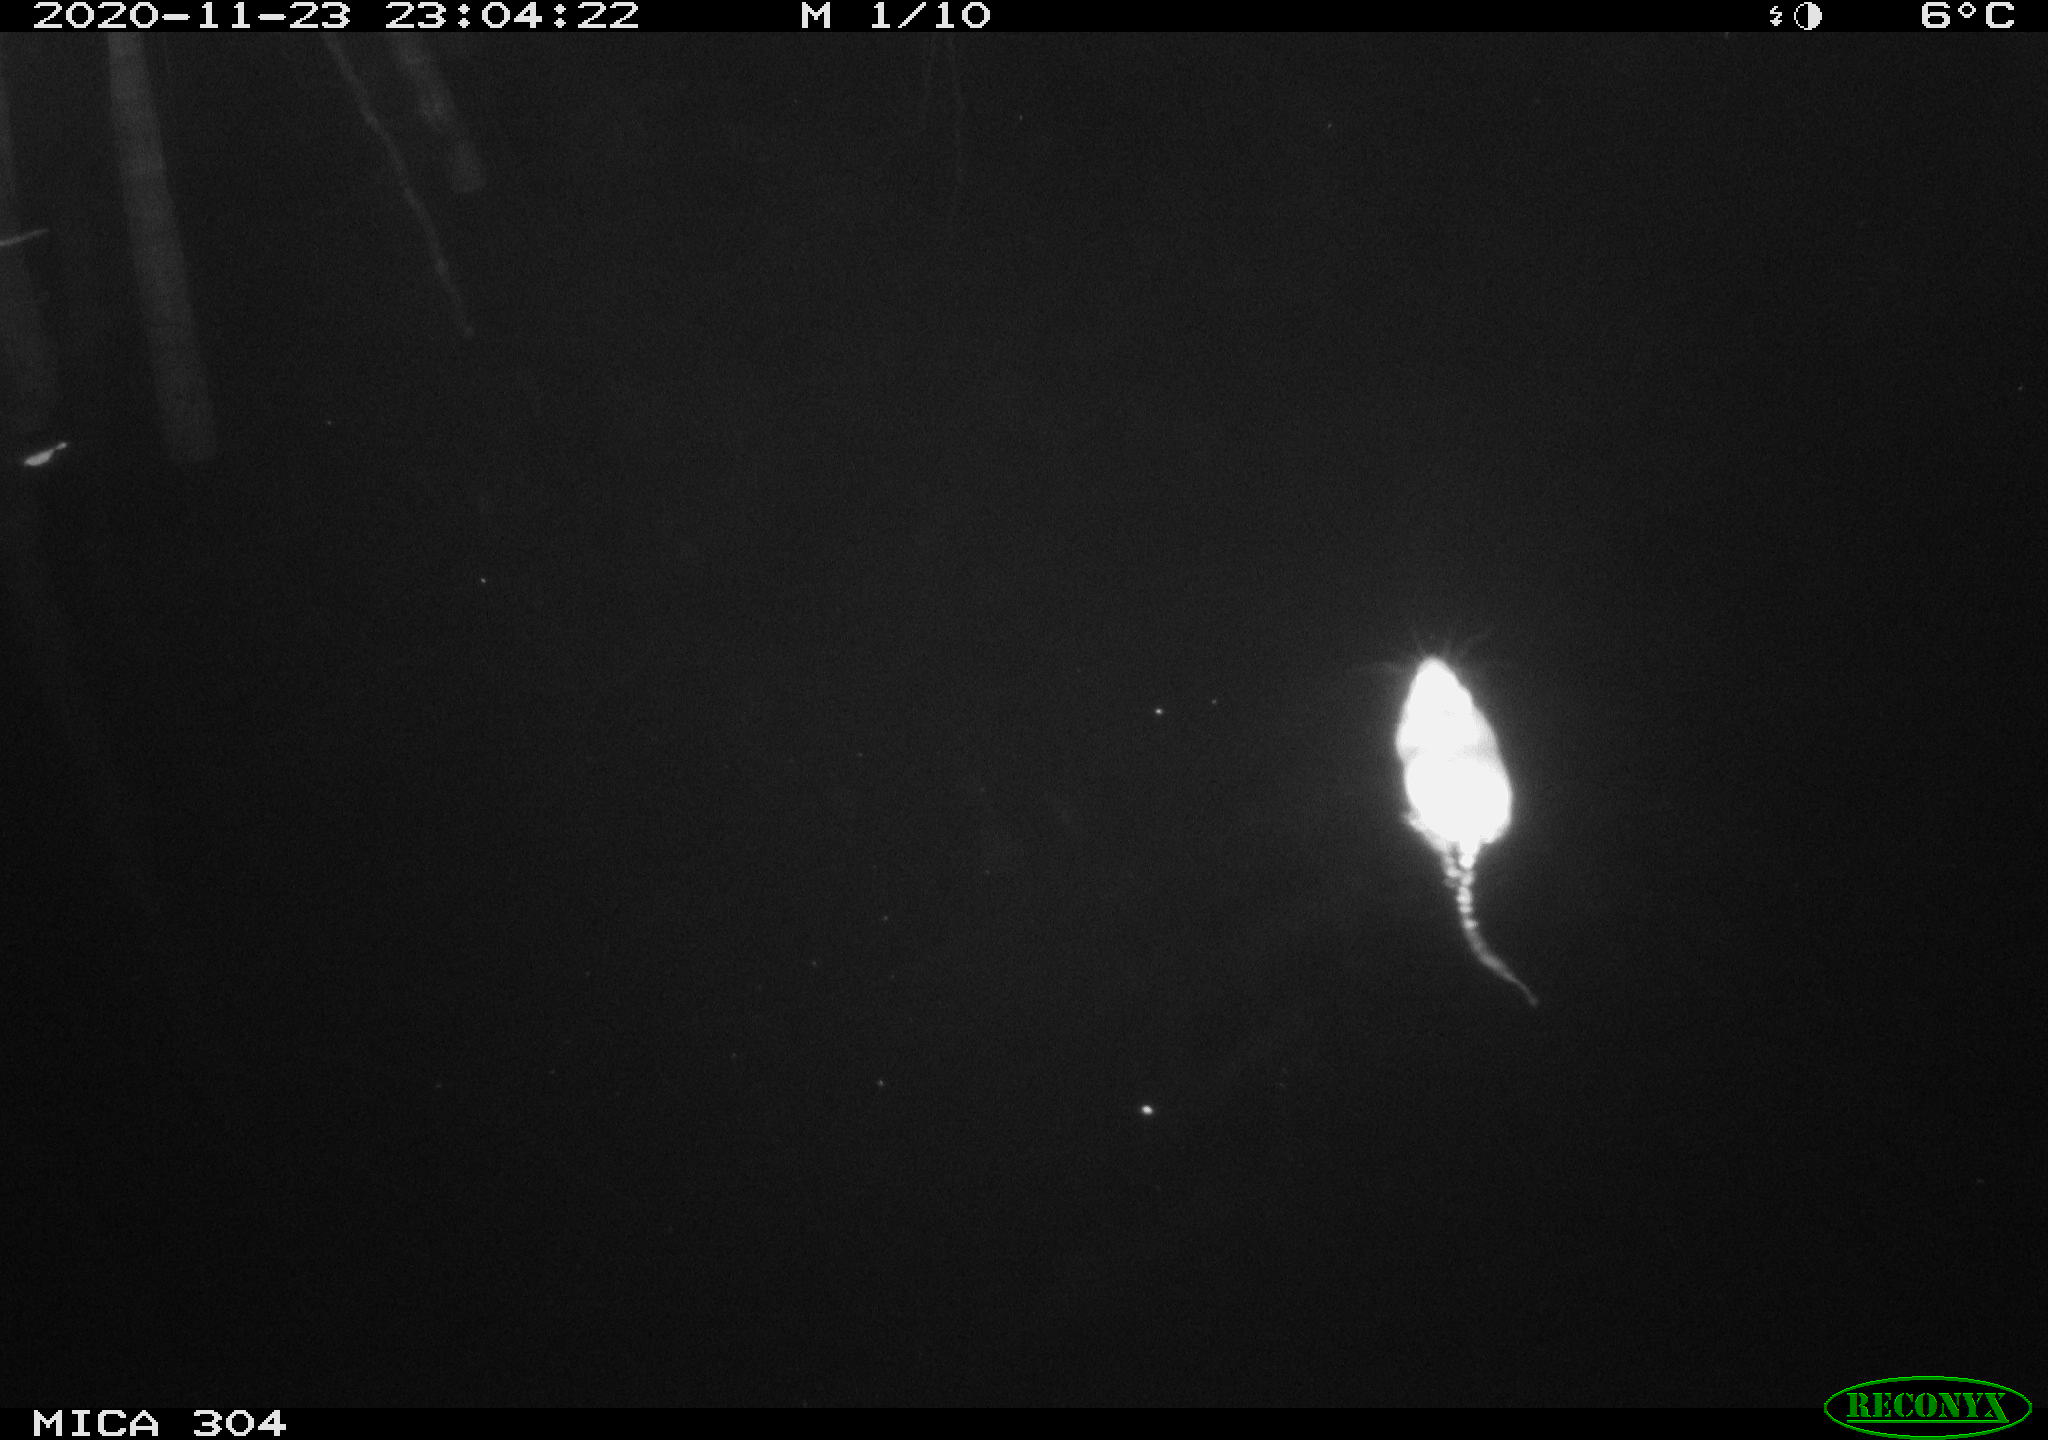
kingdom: Animalia
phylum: Chordata
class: Mammalia
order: Rodentia
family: Muridae
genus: Rattus
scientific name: Rattus norvegicus
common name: Brown rat
